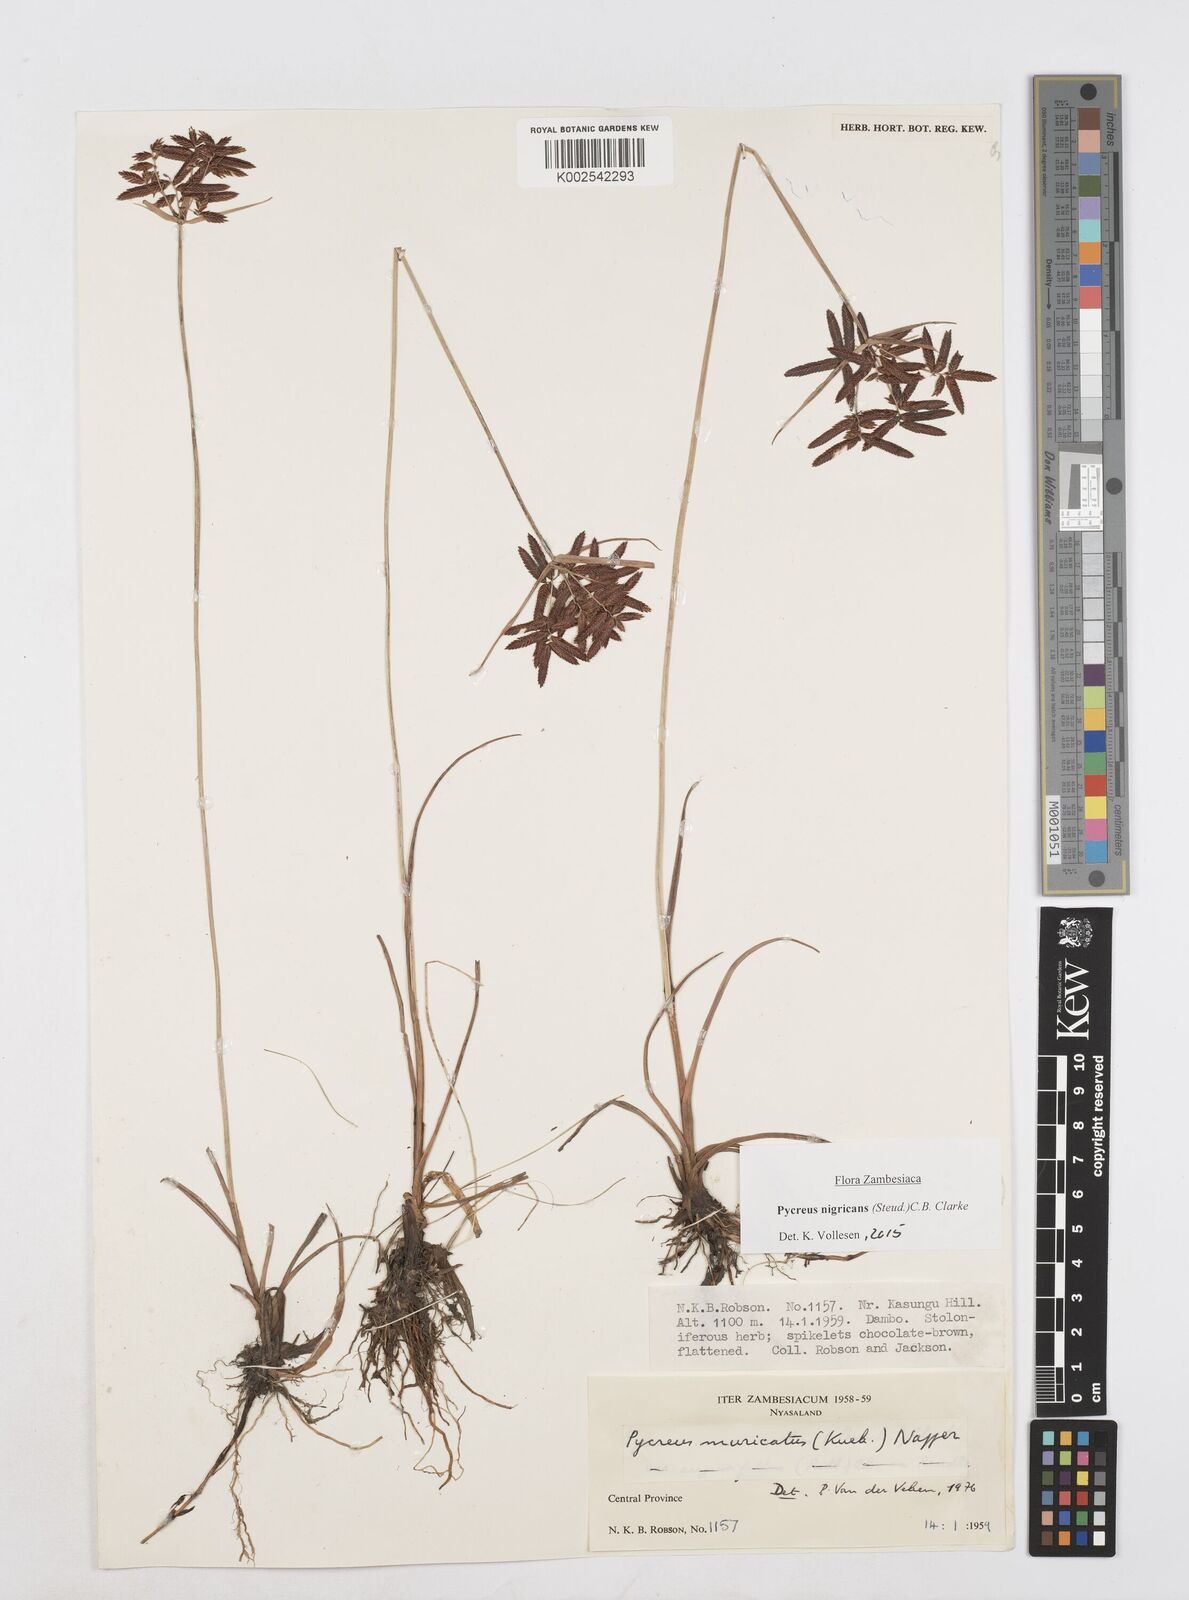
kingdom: Plantae
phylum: Tracheophyta
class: Liliopsida
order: Poales
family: Cyperaceae
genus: Cyperus
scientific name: Cyperus nigricans
